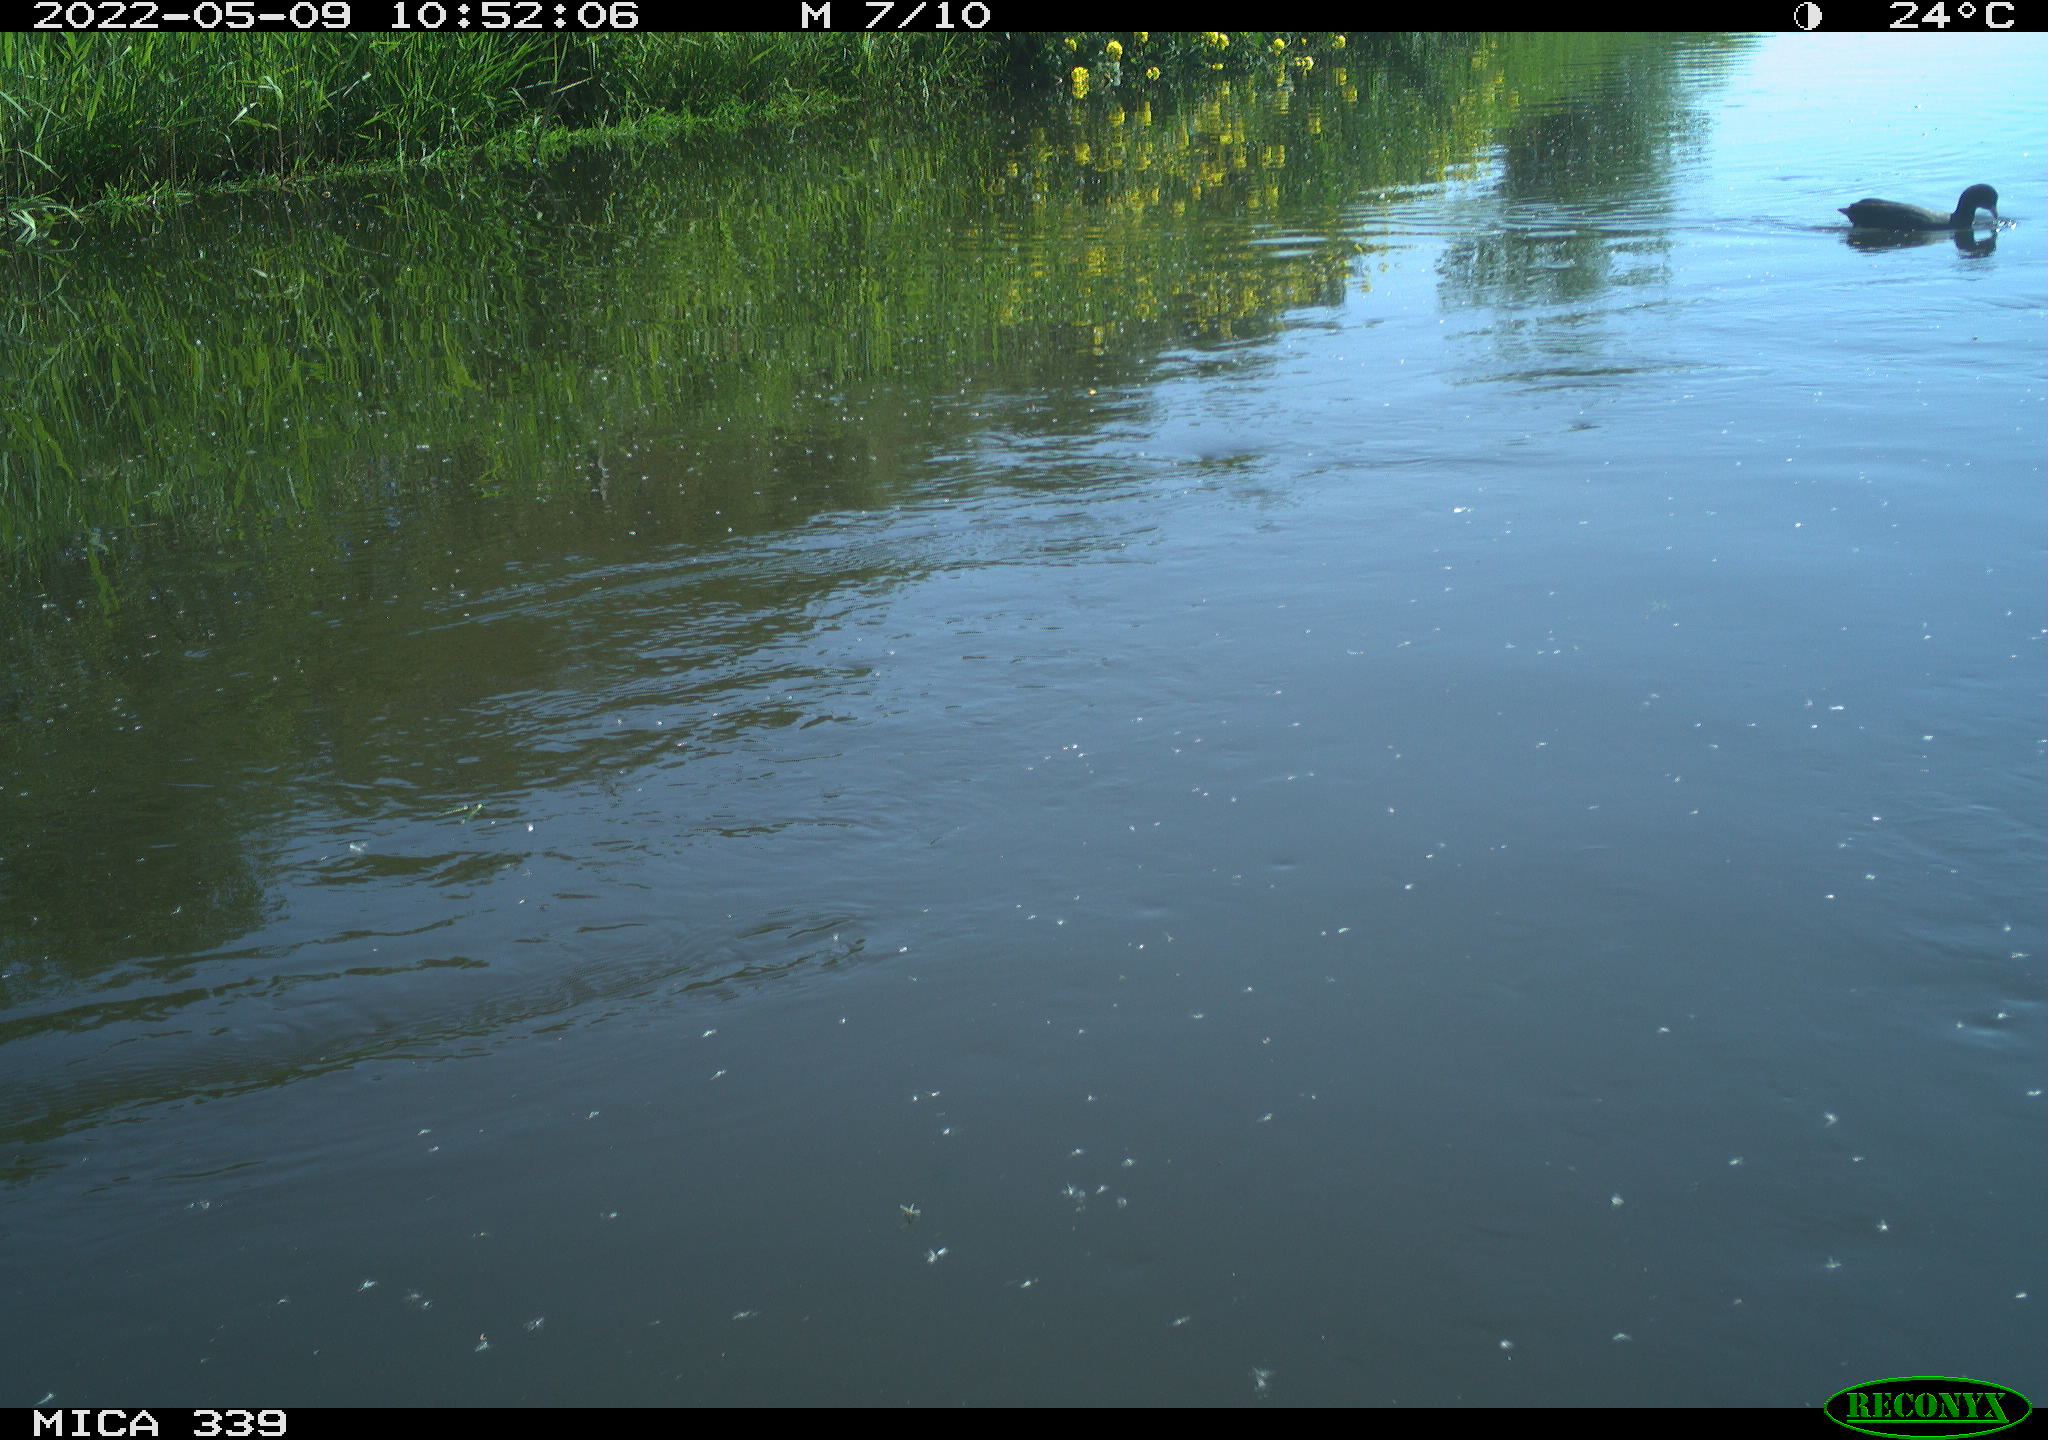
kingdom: Animalia
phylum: Chordata
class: Aves
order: Gruiformes
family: Rallidae
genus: Fulica
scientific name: Fulica atra
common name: Eurasian coot
